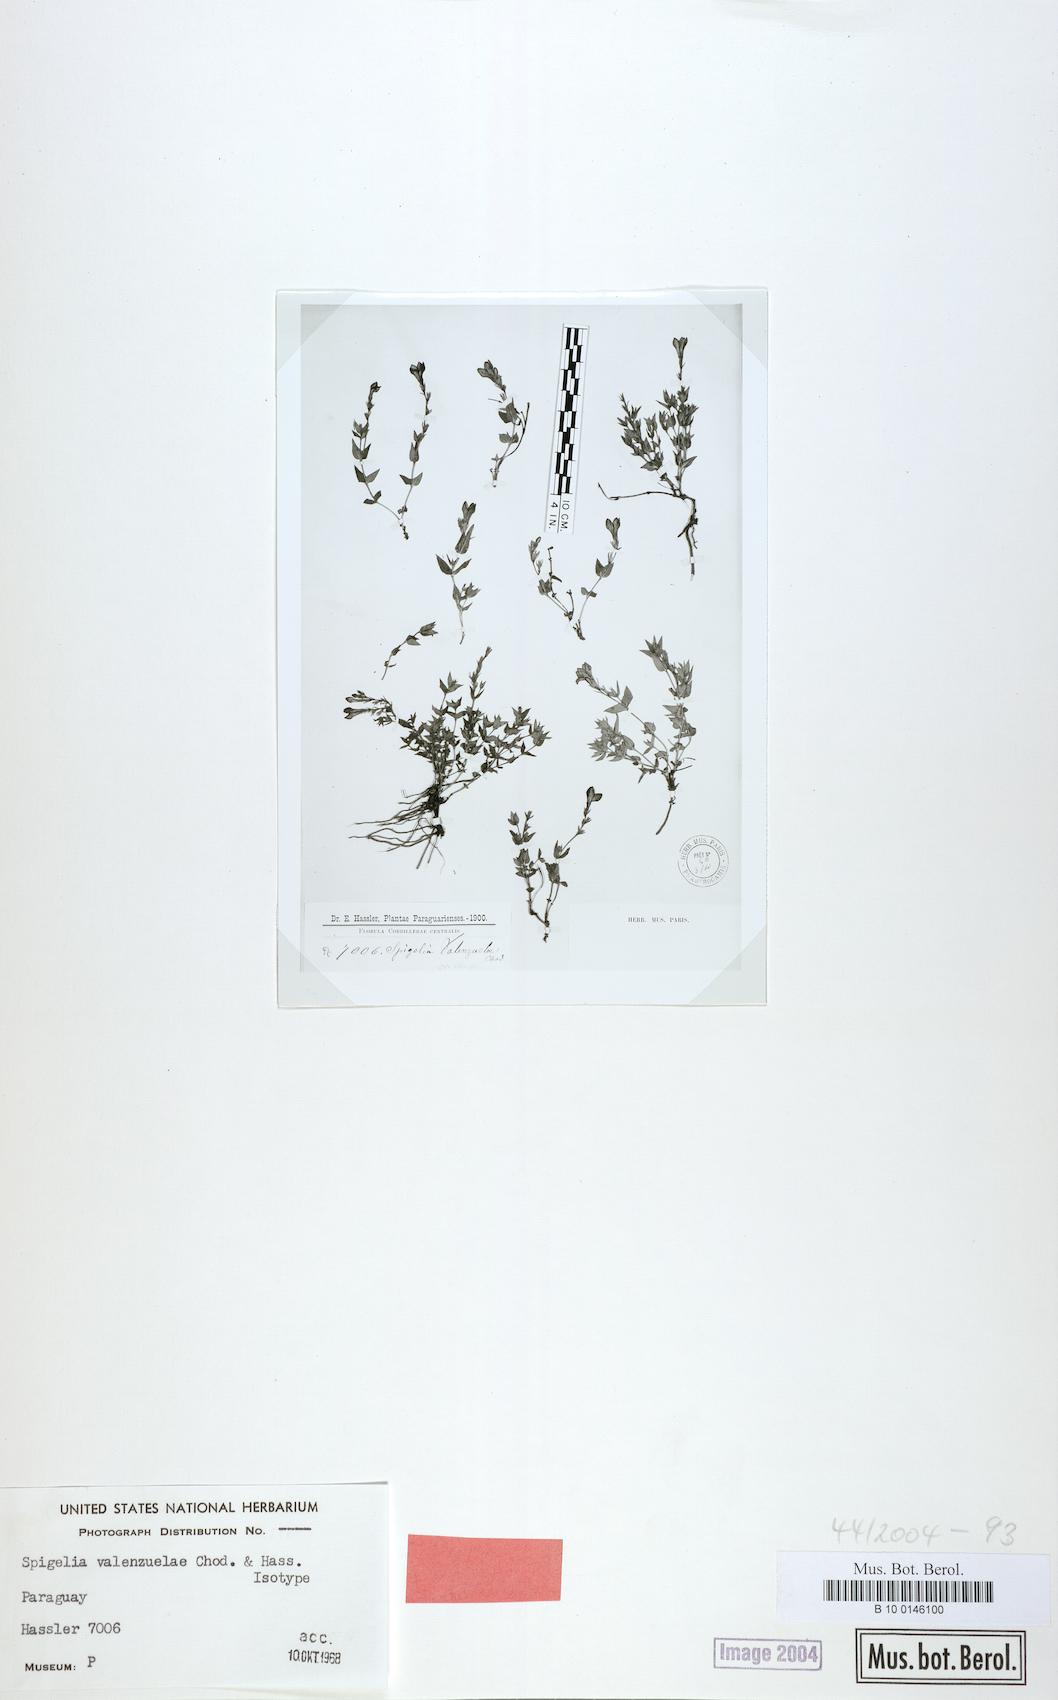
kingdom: Plantae
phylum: Tracheophyta
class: Magnoliopsida
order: Gentianales
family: Loganiaceae
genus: Spigelia
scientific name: Spigelia valenzuelae
